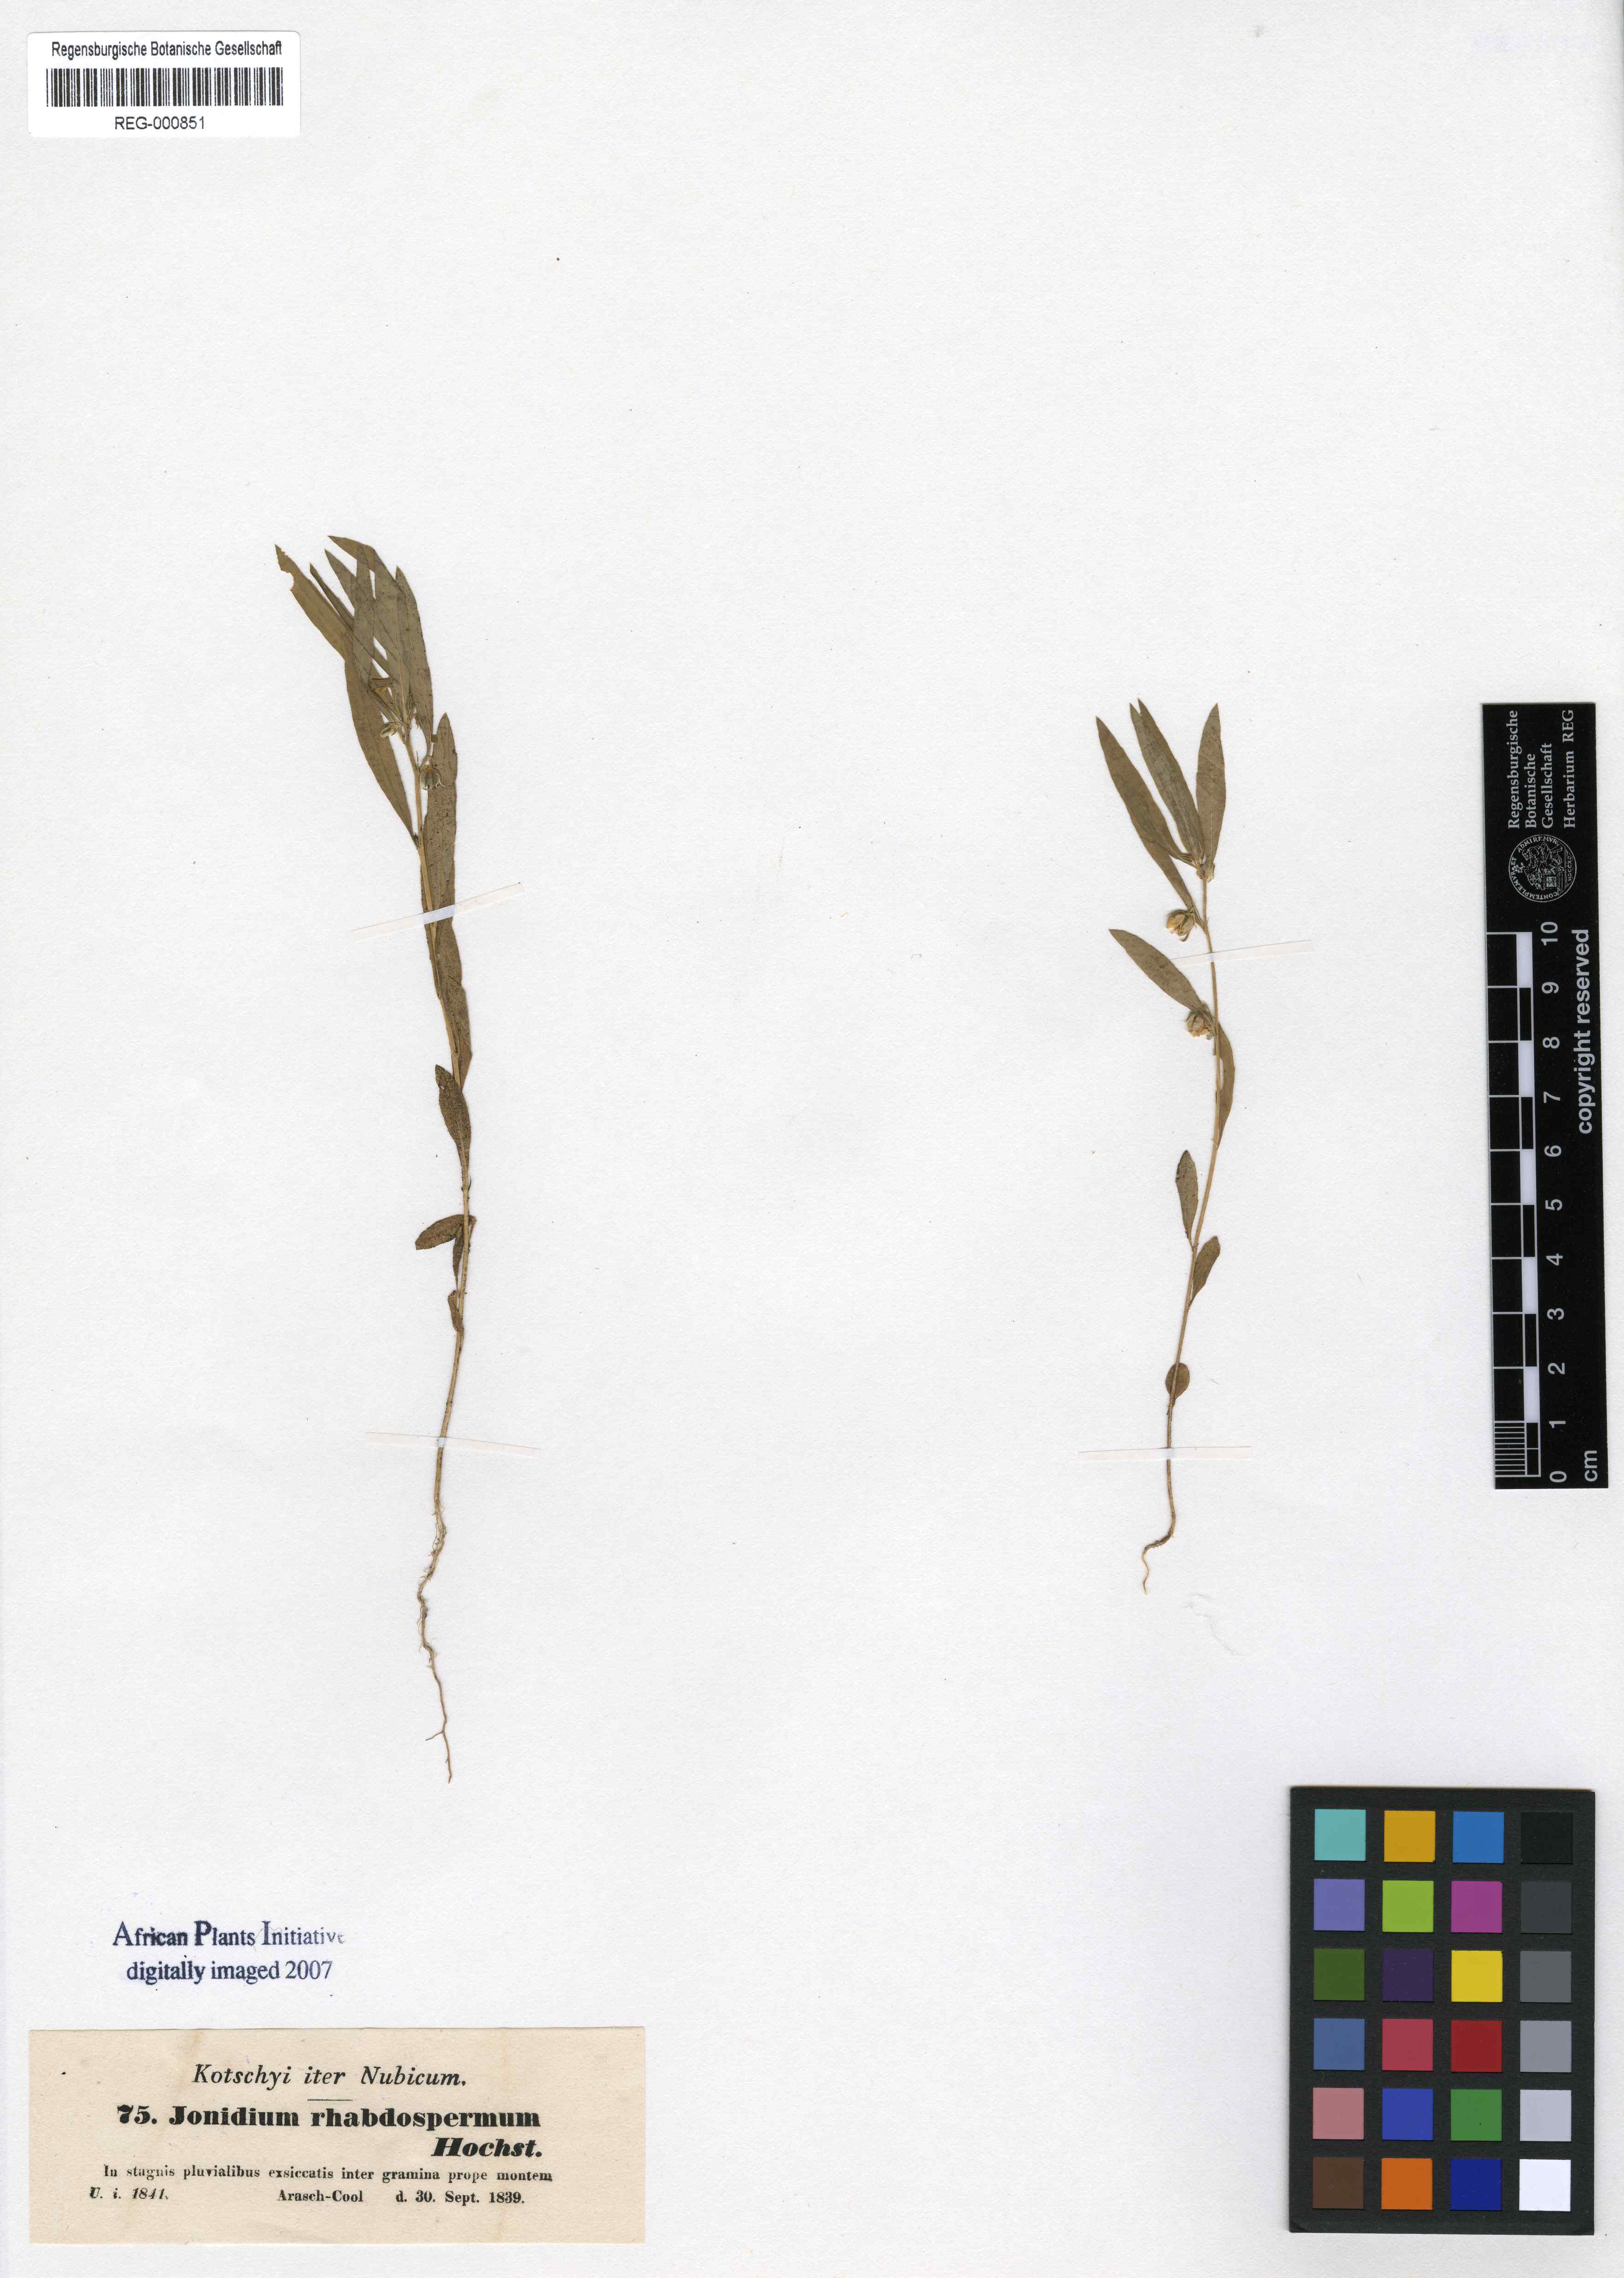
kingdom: Plantae
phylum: Tracheophyta
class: Magnoliopsida
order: Malpighiales
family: Violaceae
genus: Pigea
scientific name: Pigea enneasperma
